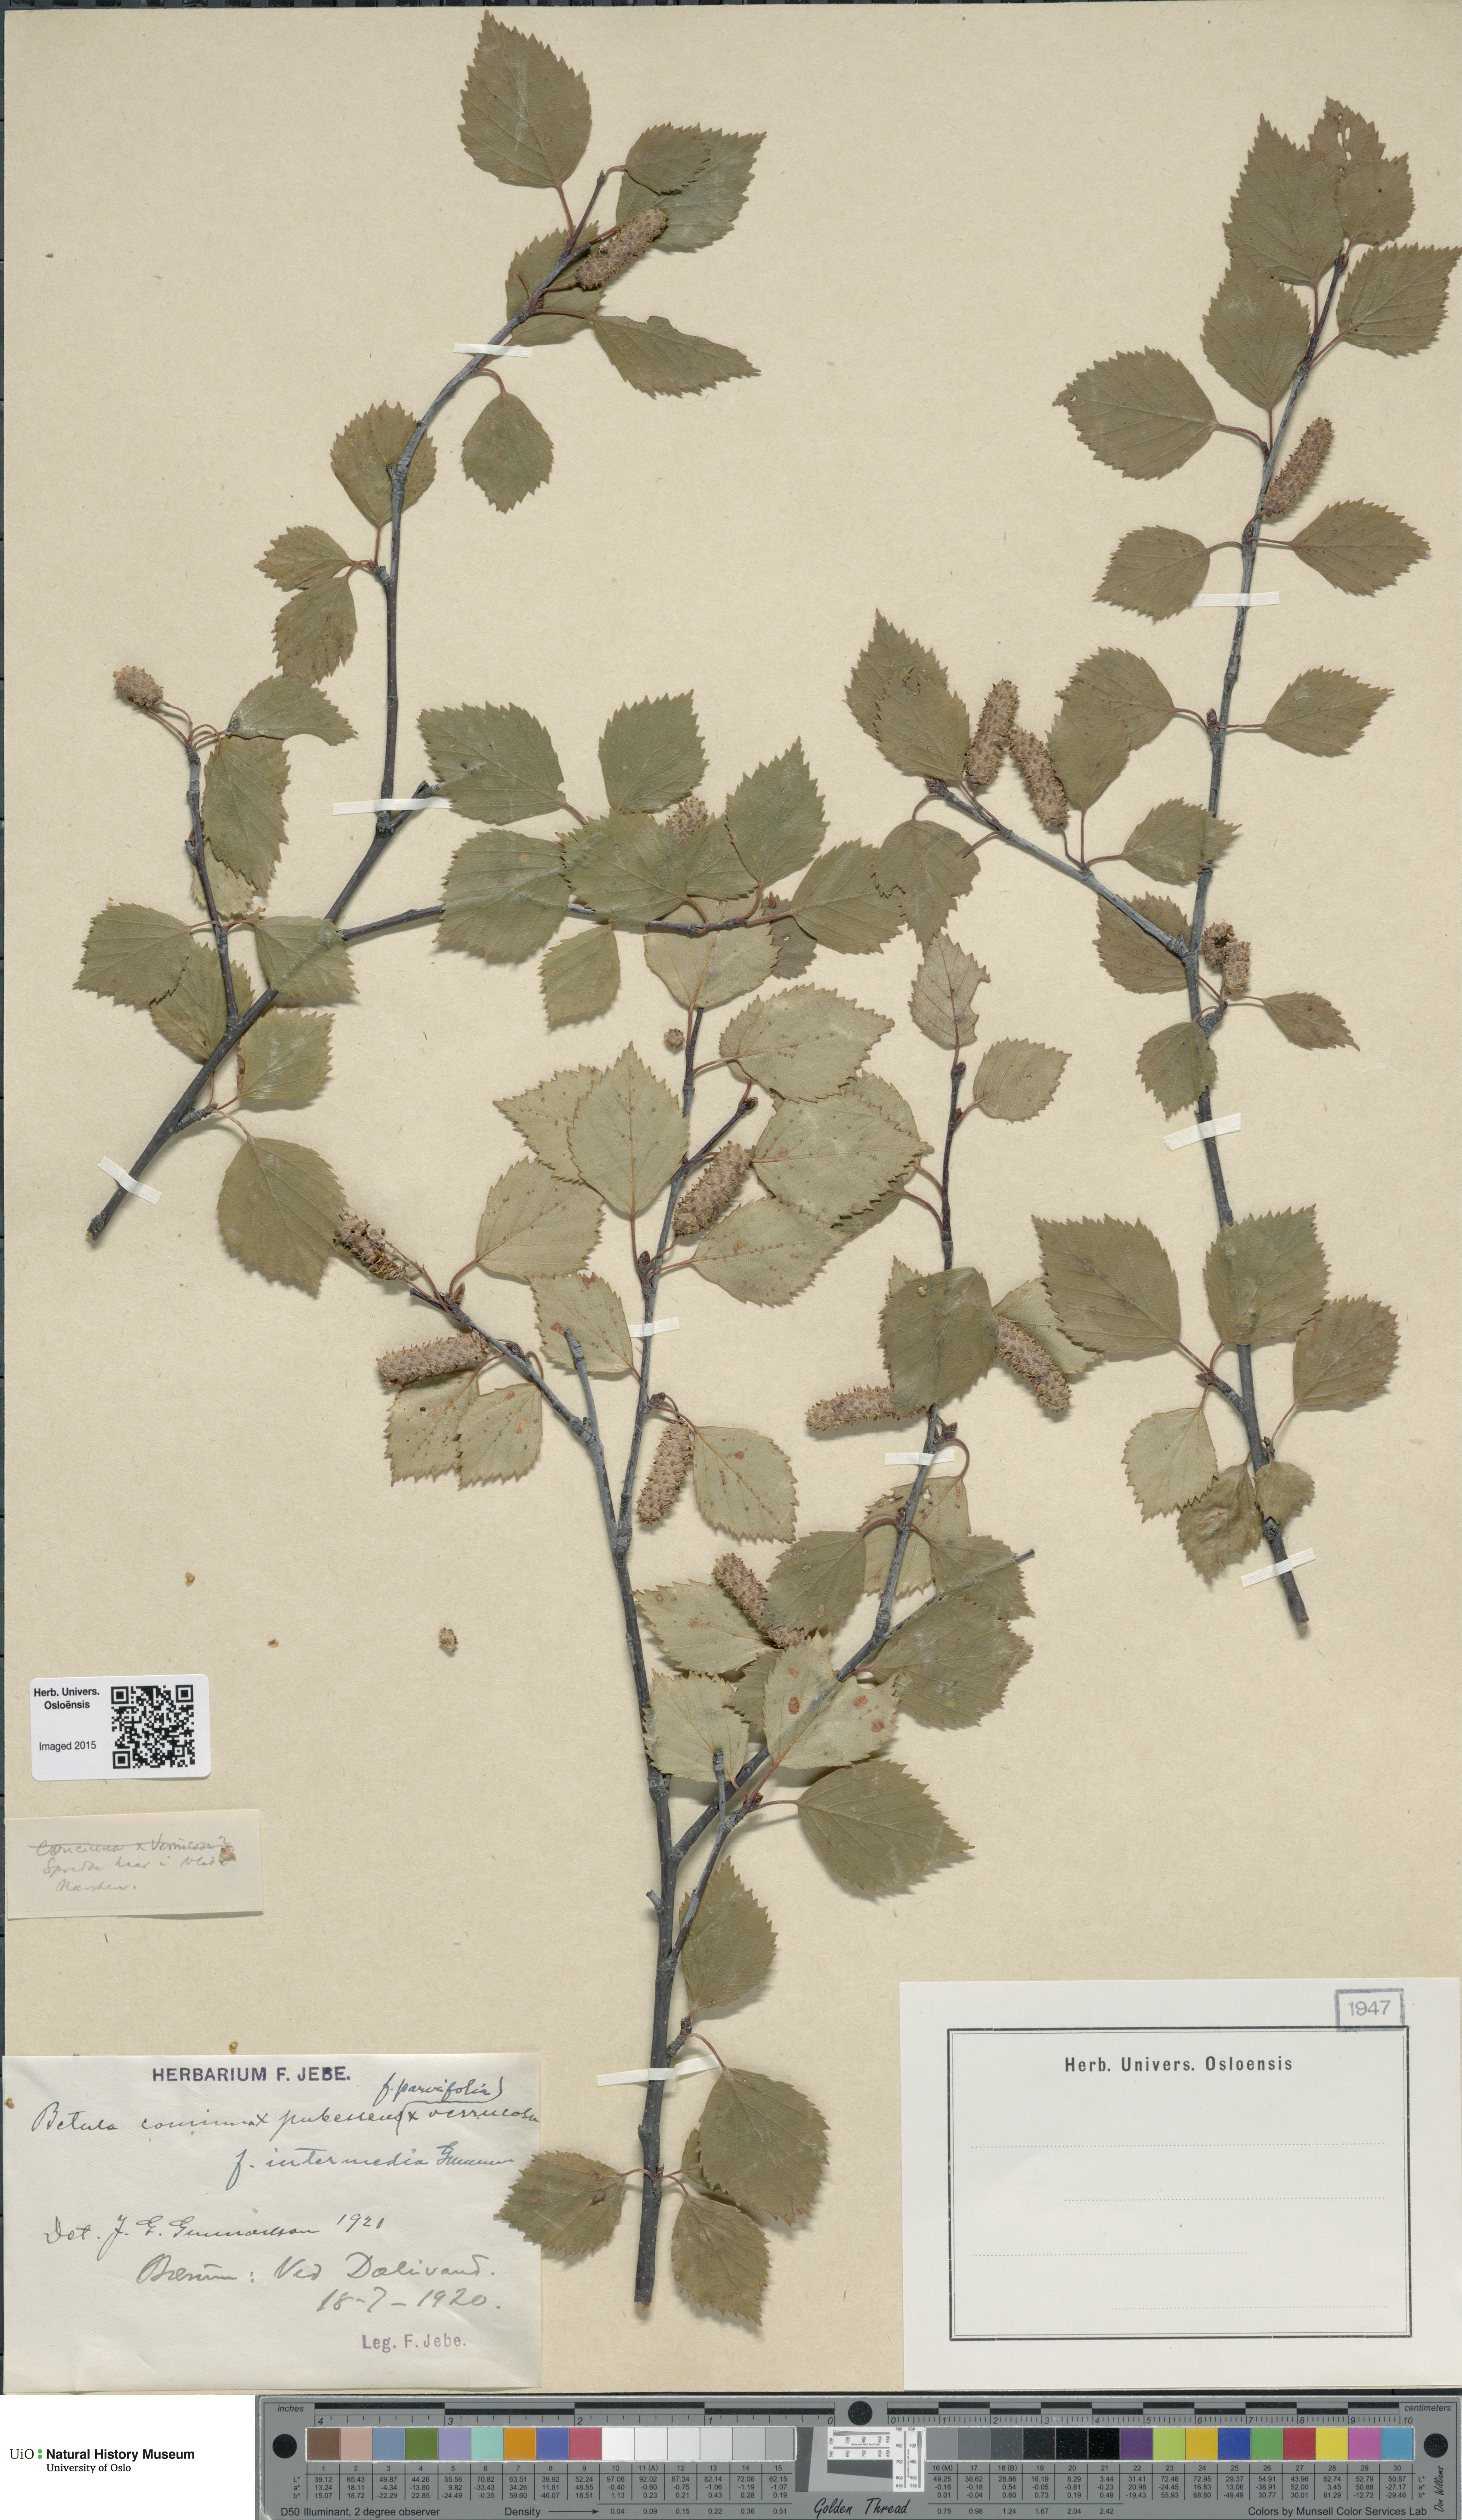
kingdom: Plantae
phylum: Tracheophyta
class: Magnoliopsida
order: Fagales
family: Betulaceae
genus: Betula
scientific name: Betula pubescens
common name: Downy birch
